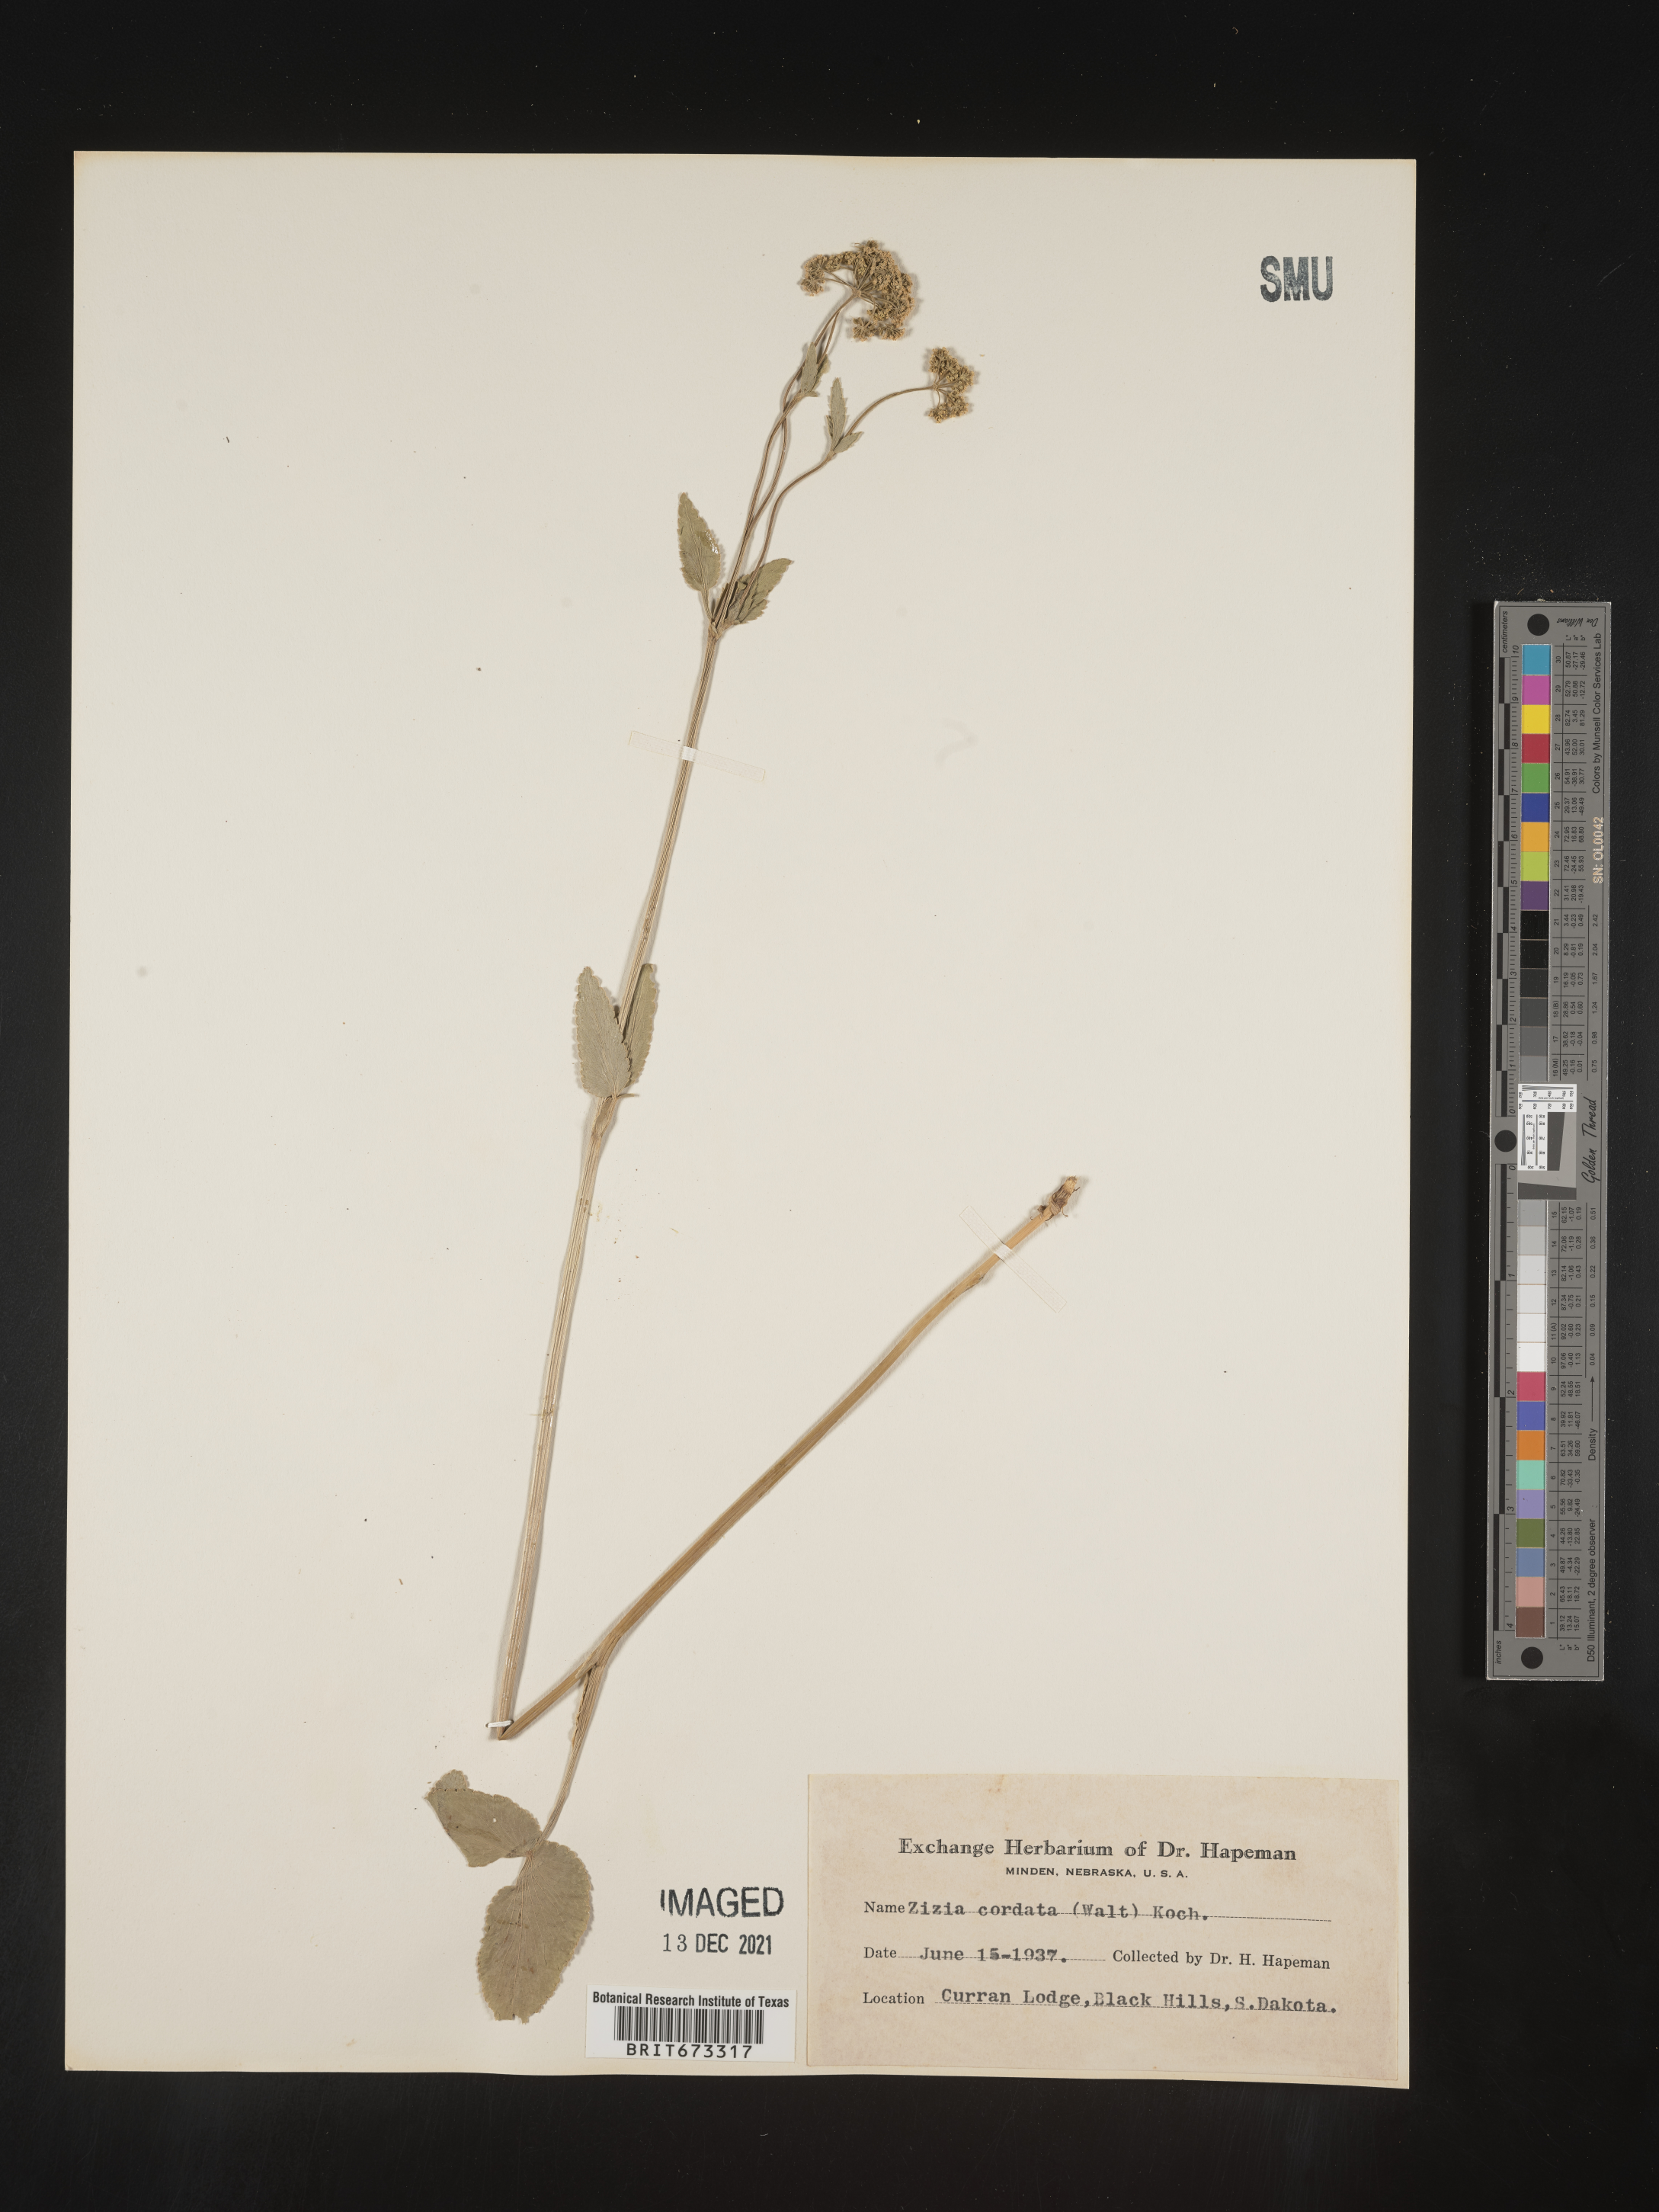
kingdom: Plantae
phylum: Tracheophyta
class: Magnoliopsida
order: Apiales
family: Apiaceae
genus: Zizia
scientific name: Zizia aptera
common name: Heart-leaved alexanders
